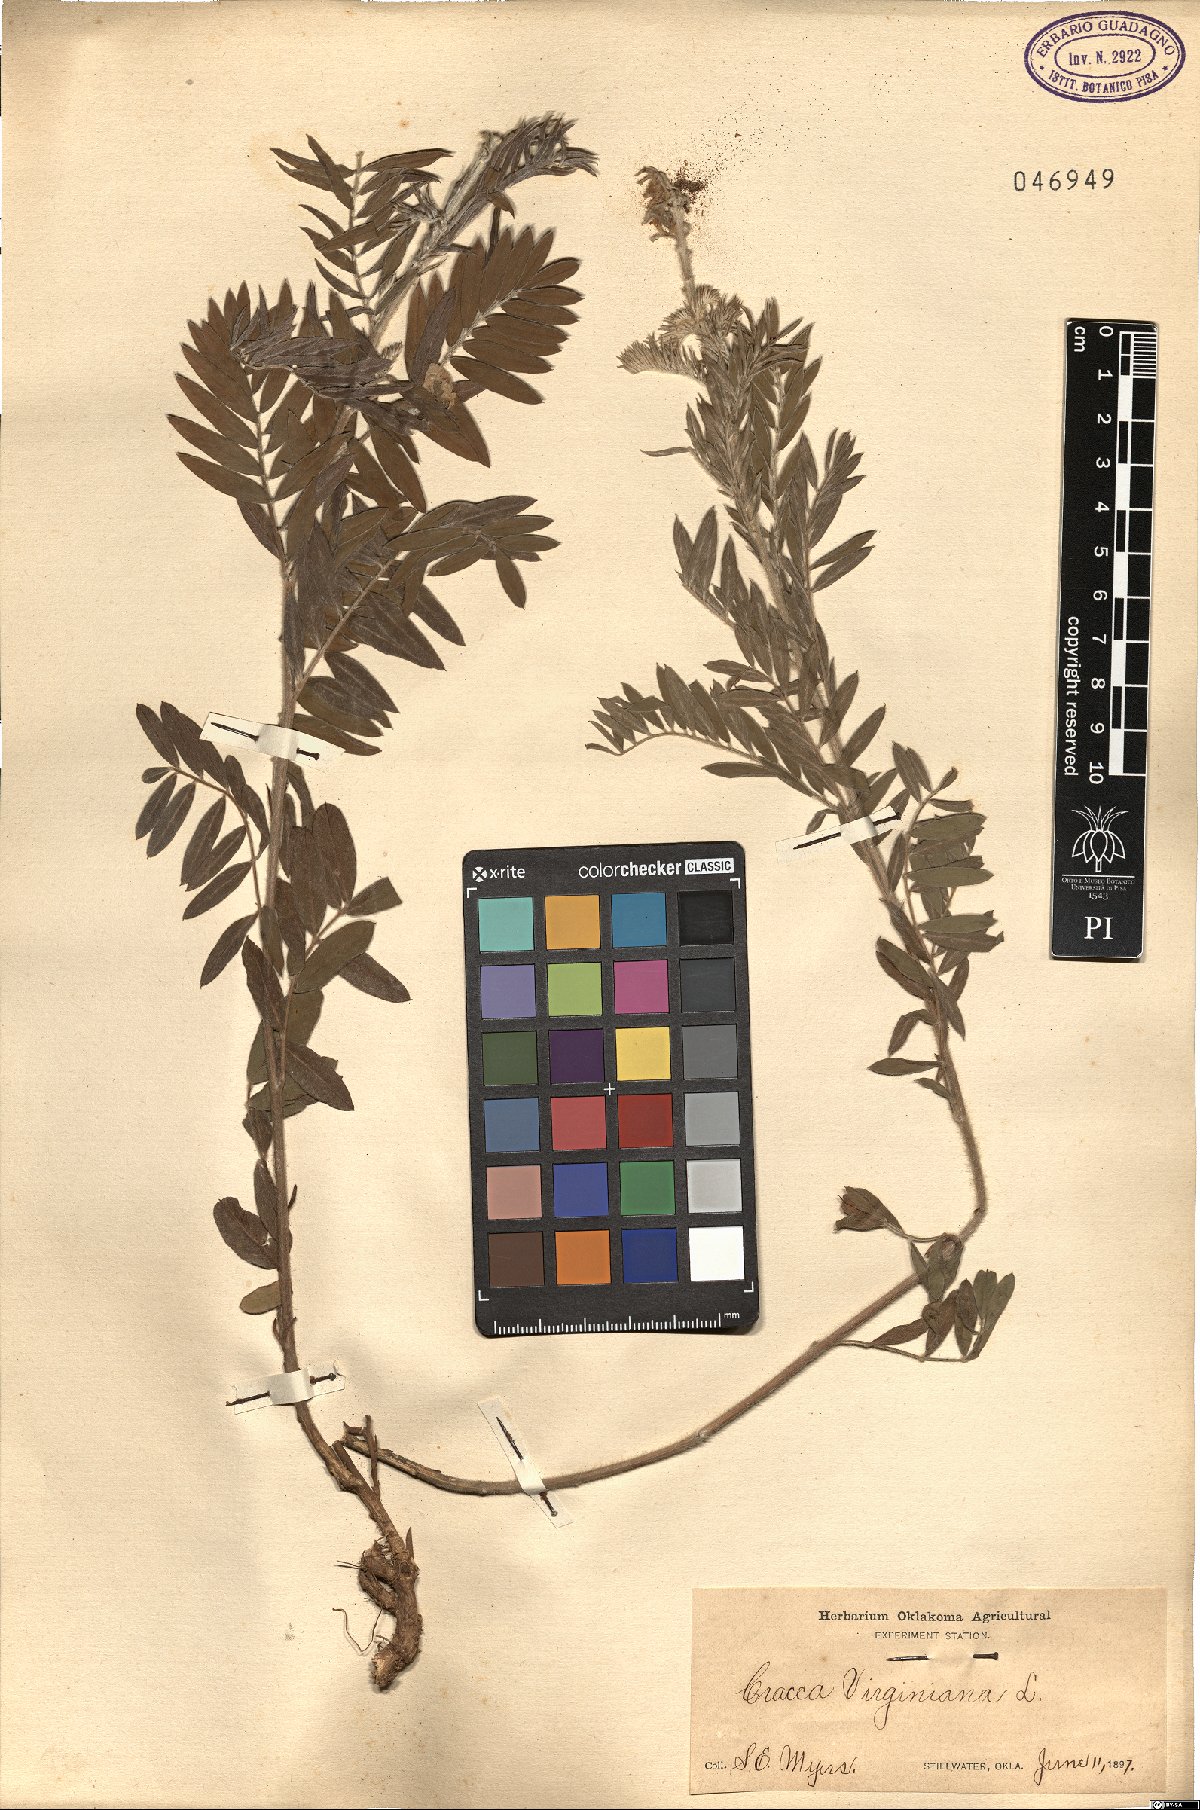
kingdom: Plantae
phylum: Tracheophyta
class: Magnoliopsida
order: Fabales
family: Fabaceae
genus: Tephrosia
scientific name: Tephrosia virginiana
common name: Rabbit-pea
